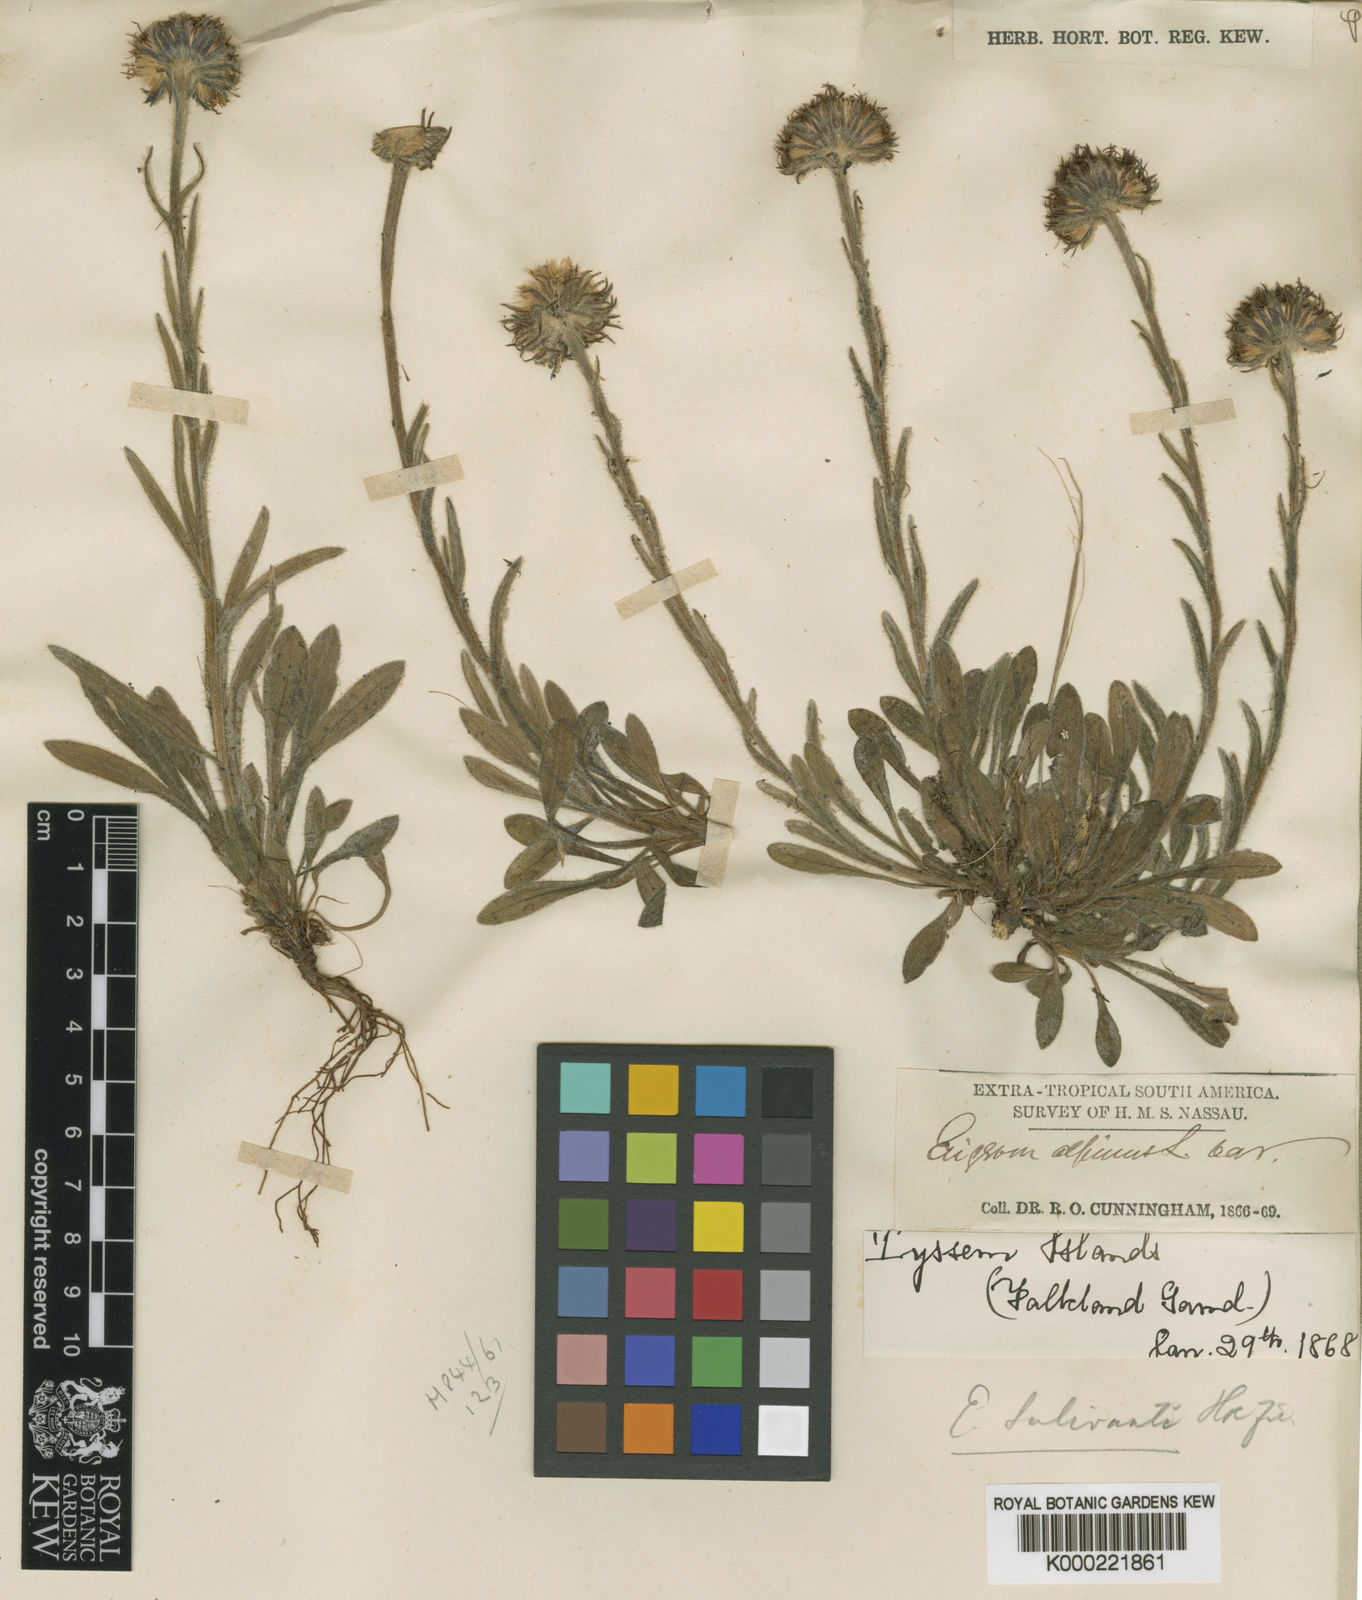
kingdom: Plantae
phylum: Tracheophyta
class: Magnoliopsida
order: Asterales
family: Asteraceae
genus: Erigeron
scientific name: Erigeron incertus
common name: Hairy daisy
